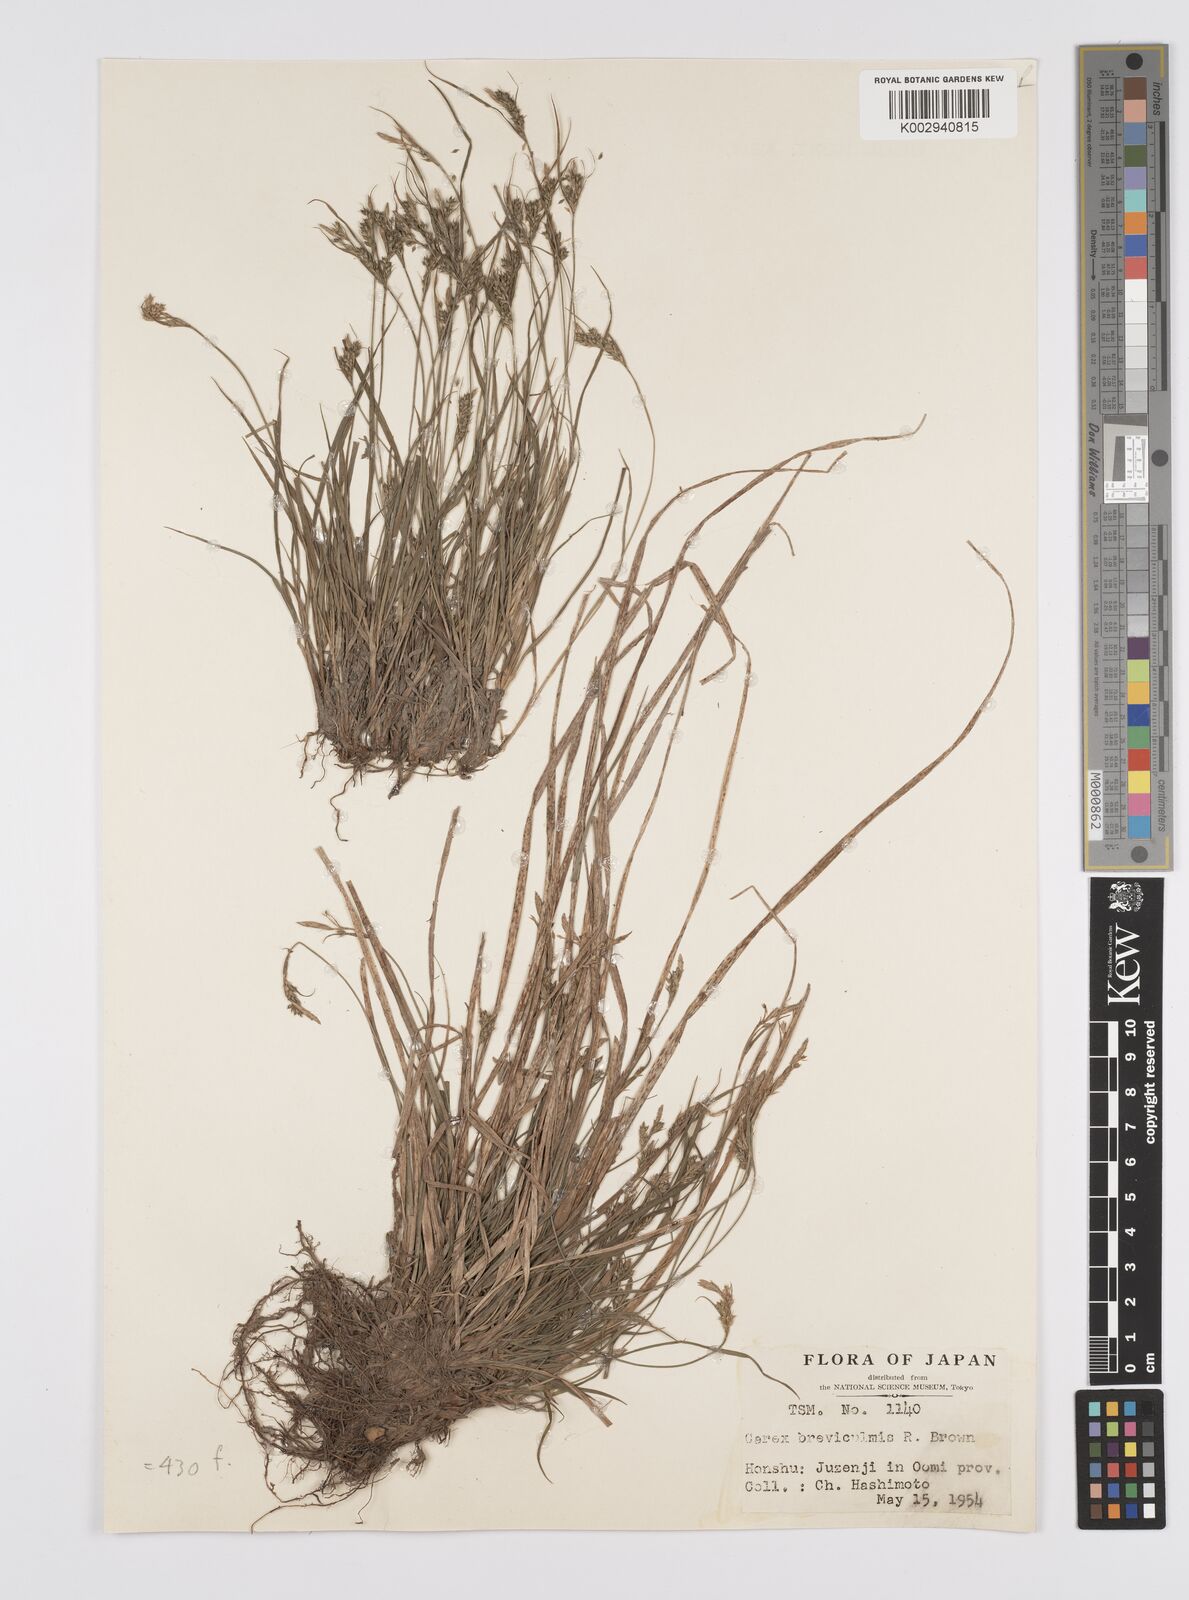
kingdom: Plantae
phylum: Tracheophyta
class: Liliopsida
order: Poales
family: Cyperaceae
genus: Carex
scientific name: Carex breviculmis
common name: Asian shortstem sedge
